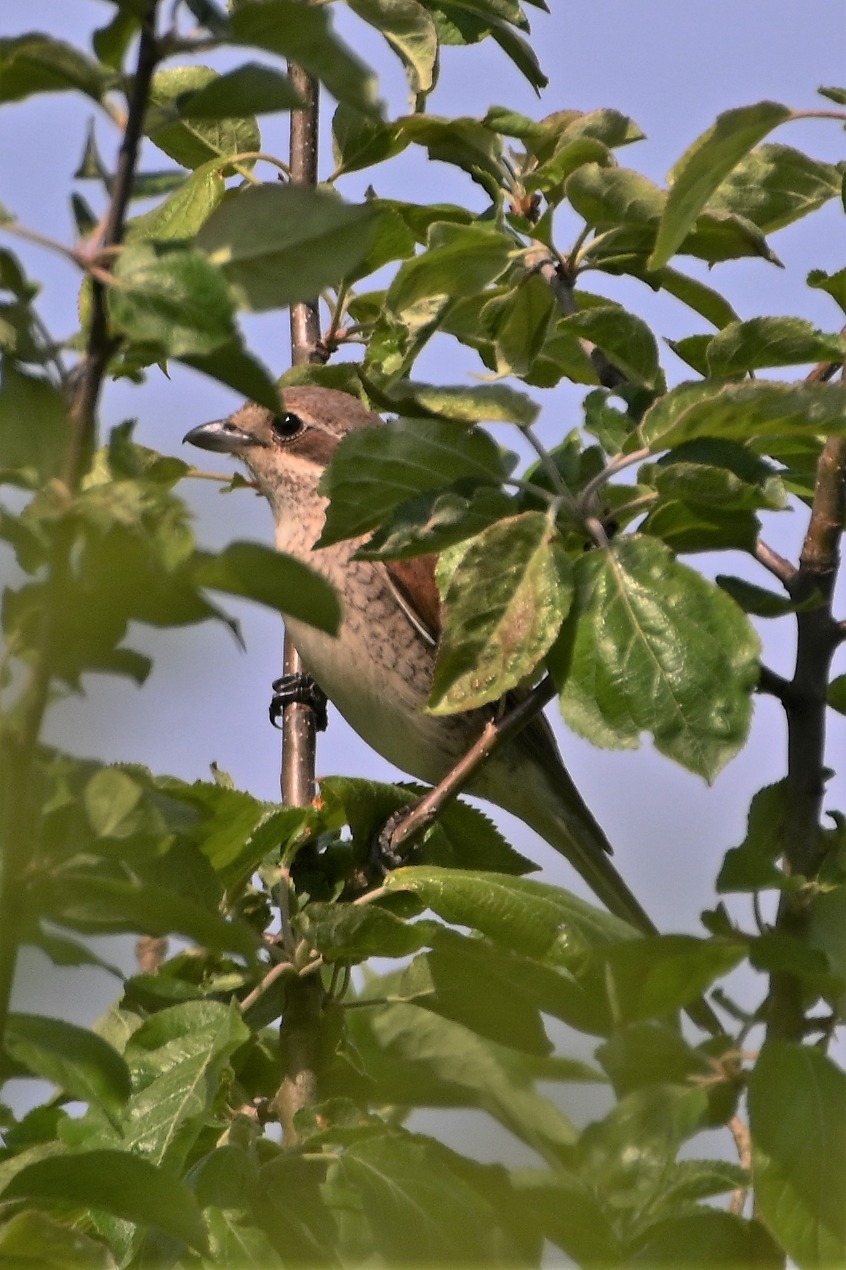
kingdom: Animalia
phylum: Chordata
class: Aves
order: Passeriformes
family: Laniidae
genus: Lanius
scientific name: Lanius collurio
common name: Rødrygget tornskade
